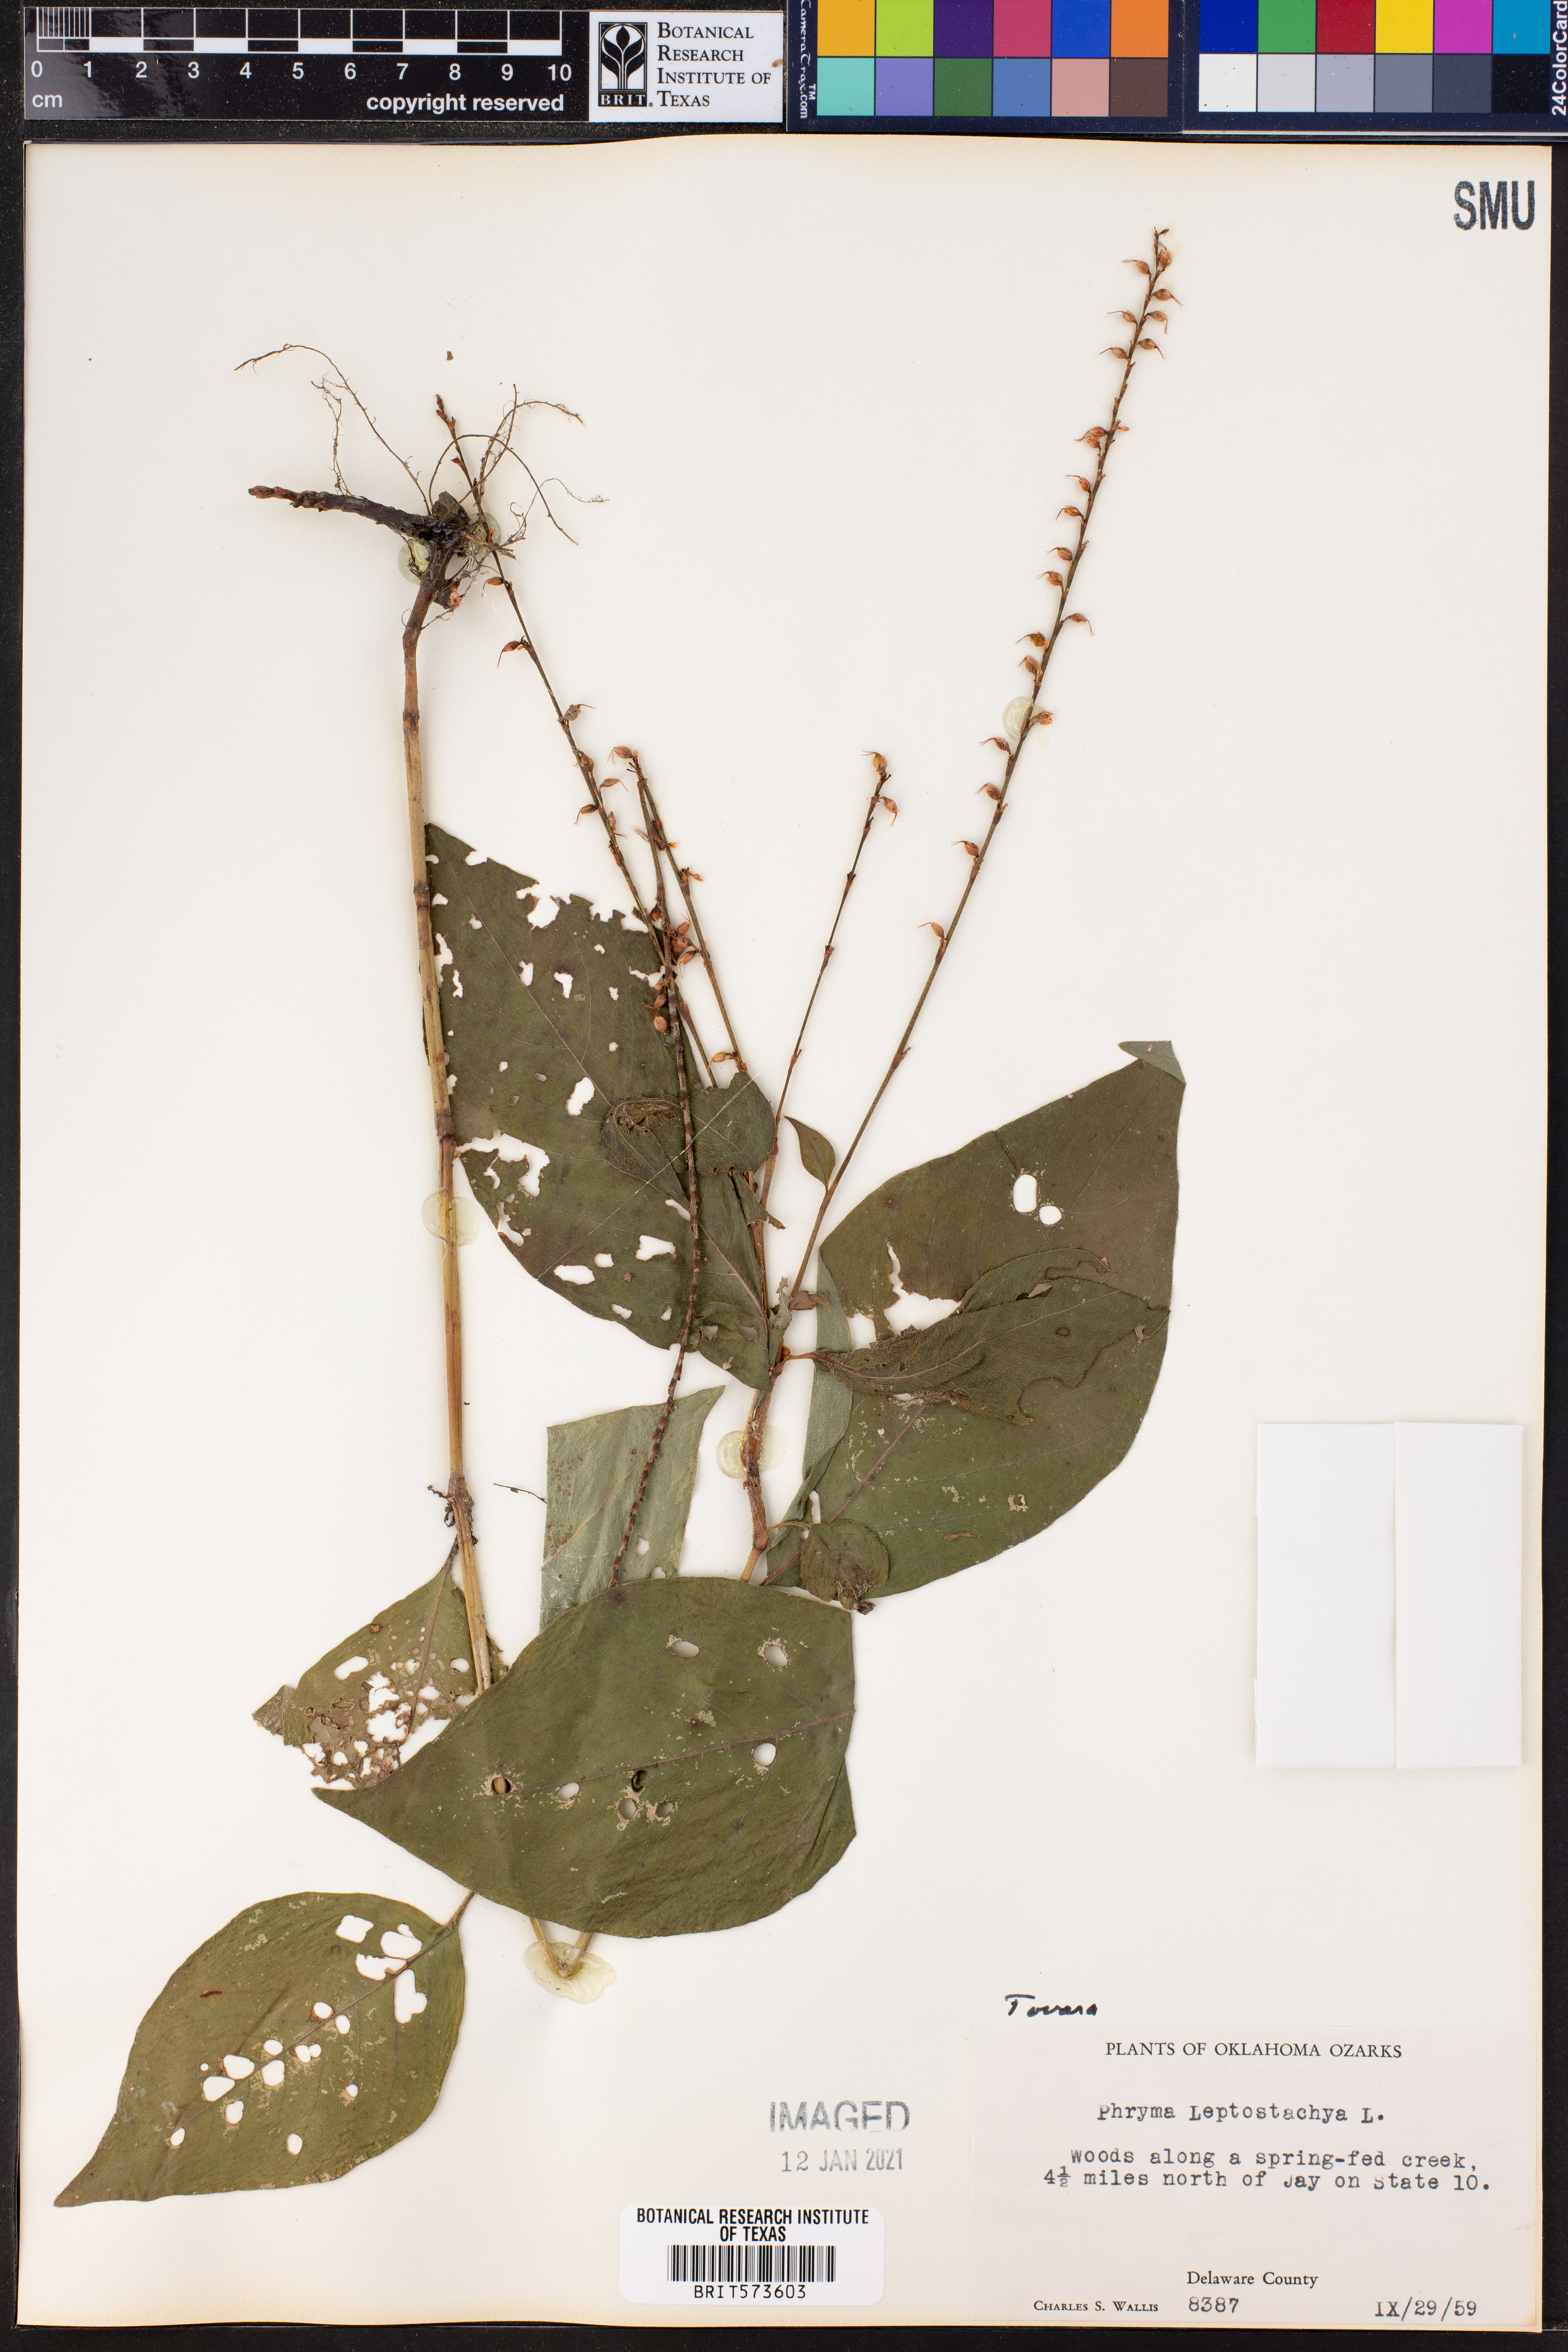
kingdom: Plantae
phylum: Tracheophyta
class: Magnoliopsida
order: Caryophyllales
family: Polygonaceae
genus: Persicaria
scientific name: Persicaria
